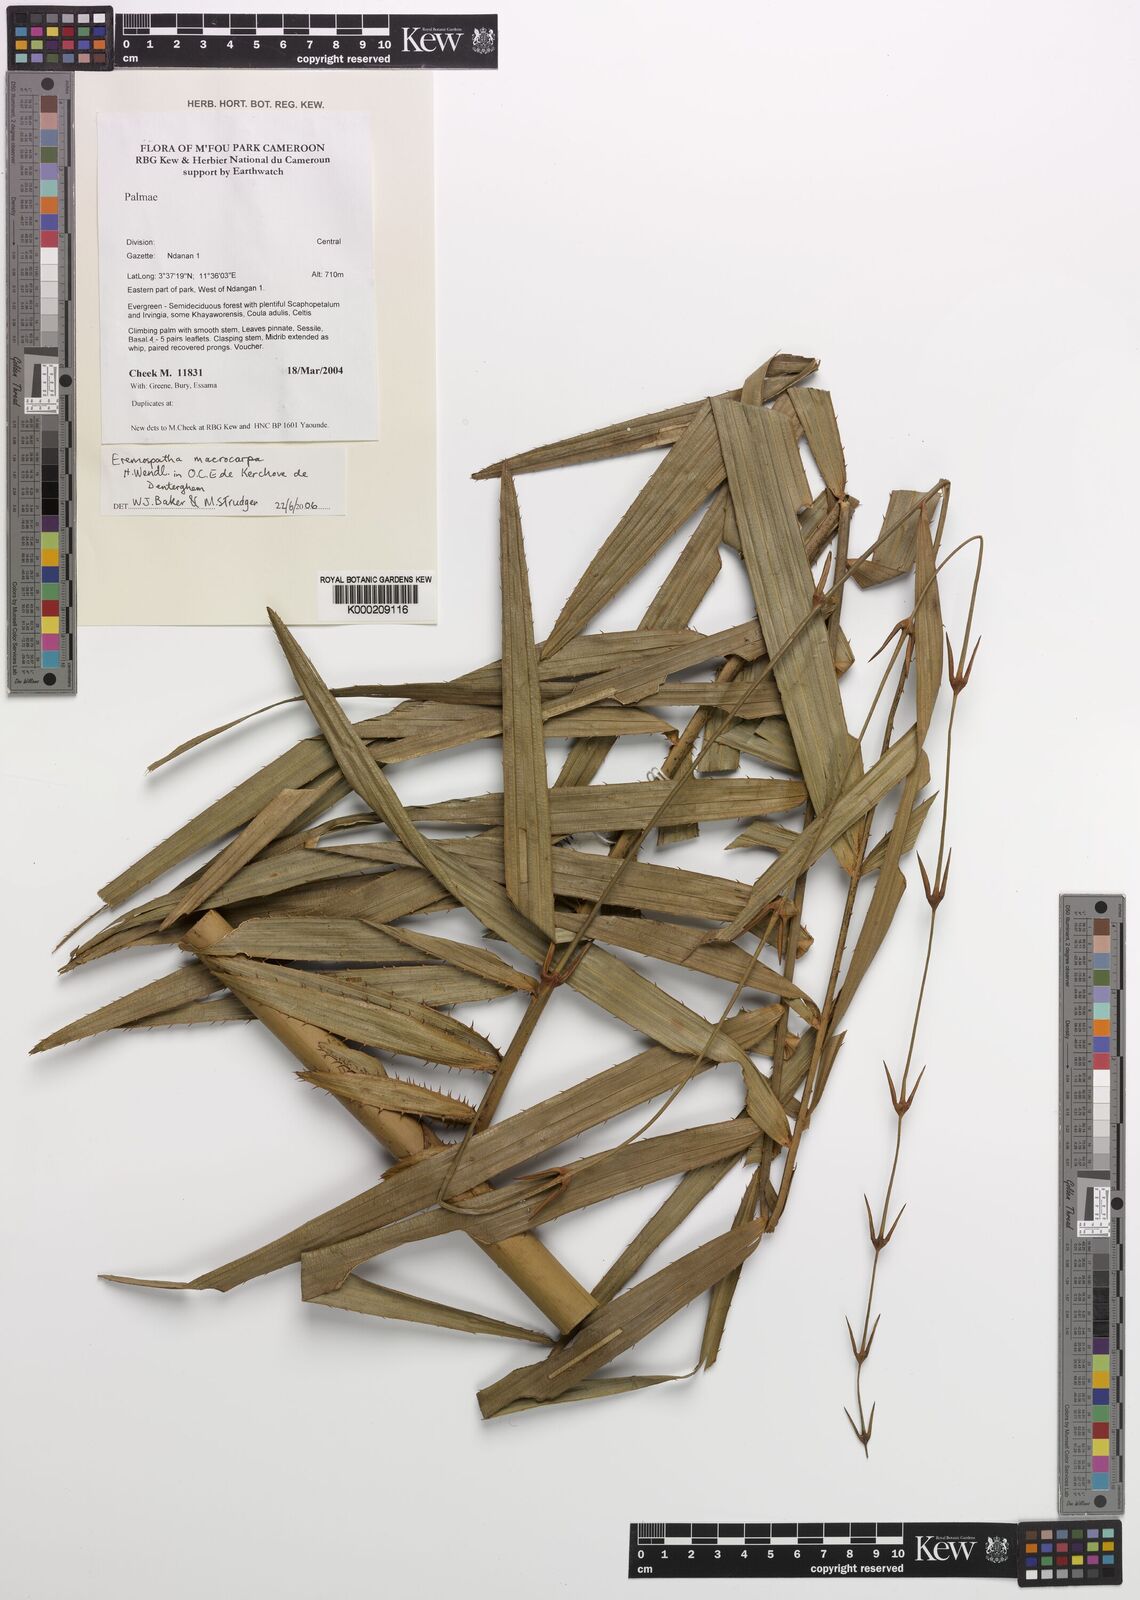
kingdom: Plantae
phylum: Tracheophyta
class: Liliopsida
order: Arecales
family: Arecaceae
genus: Eremospatha
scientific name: Eremospatha
